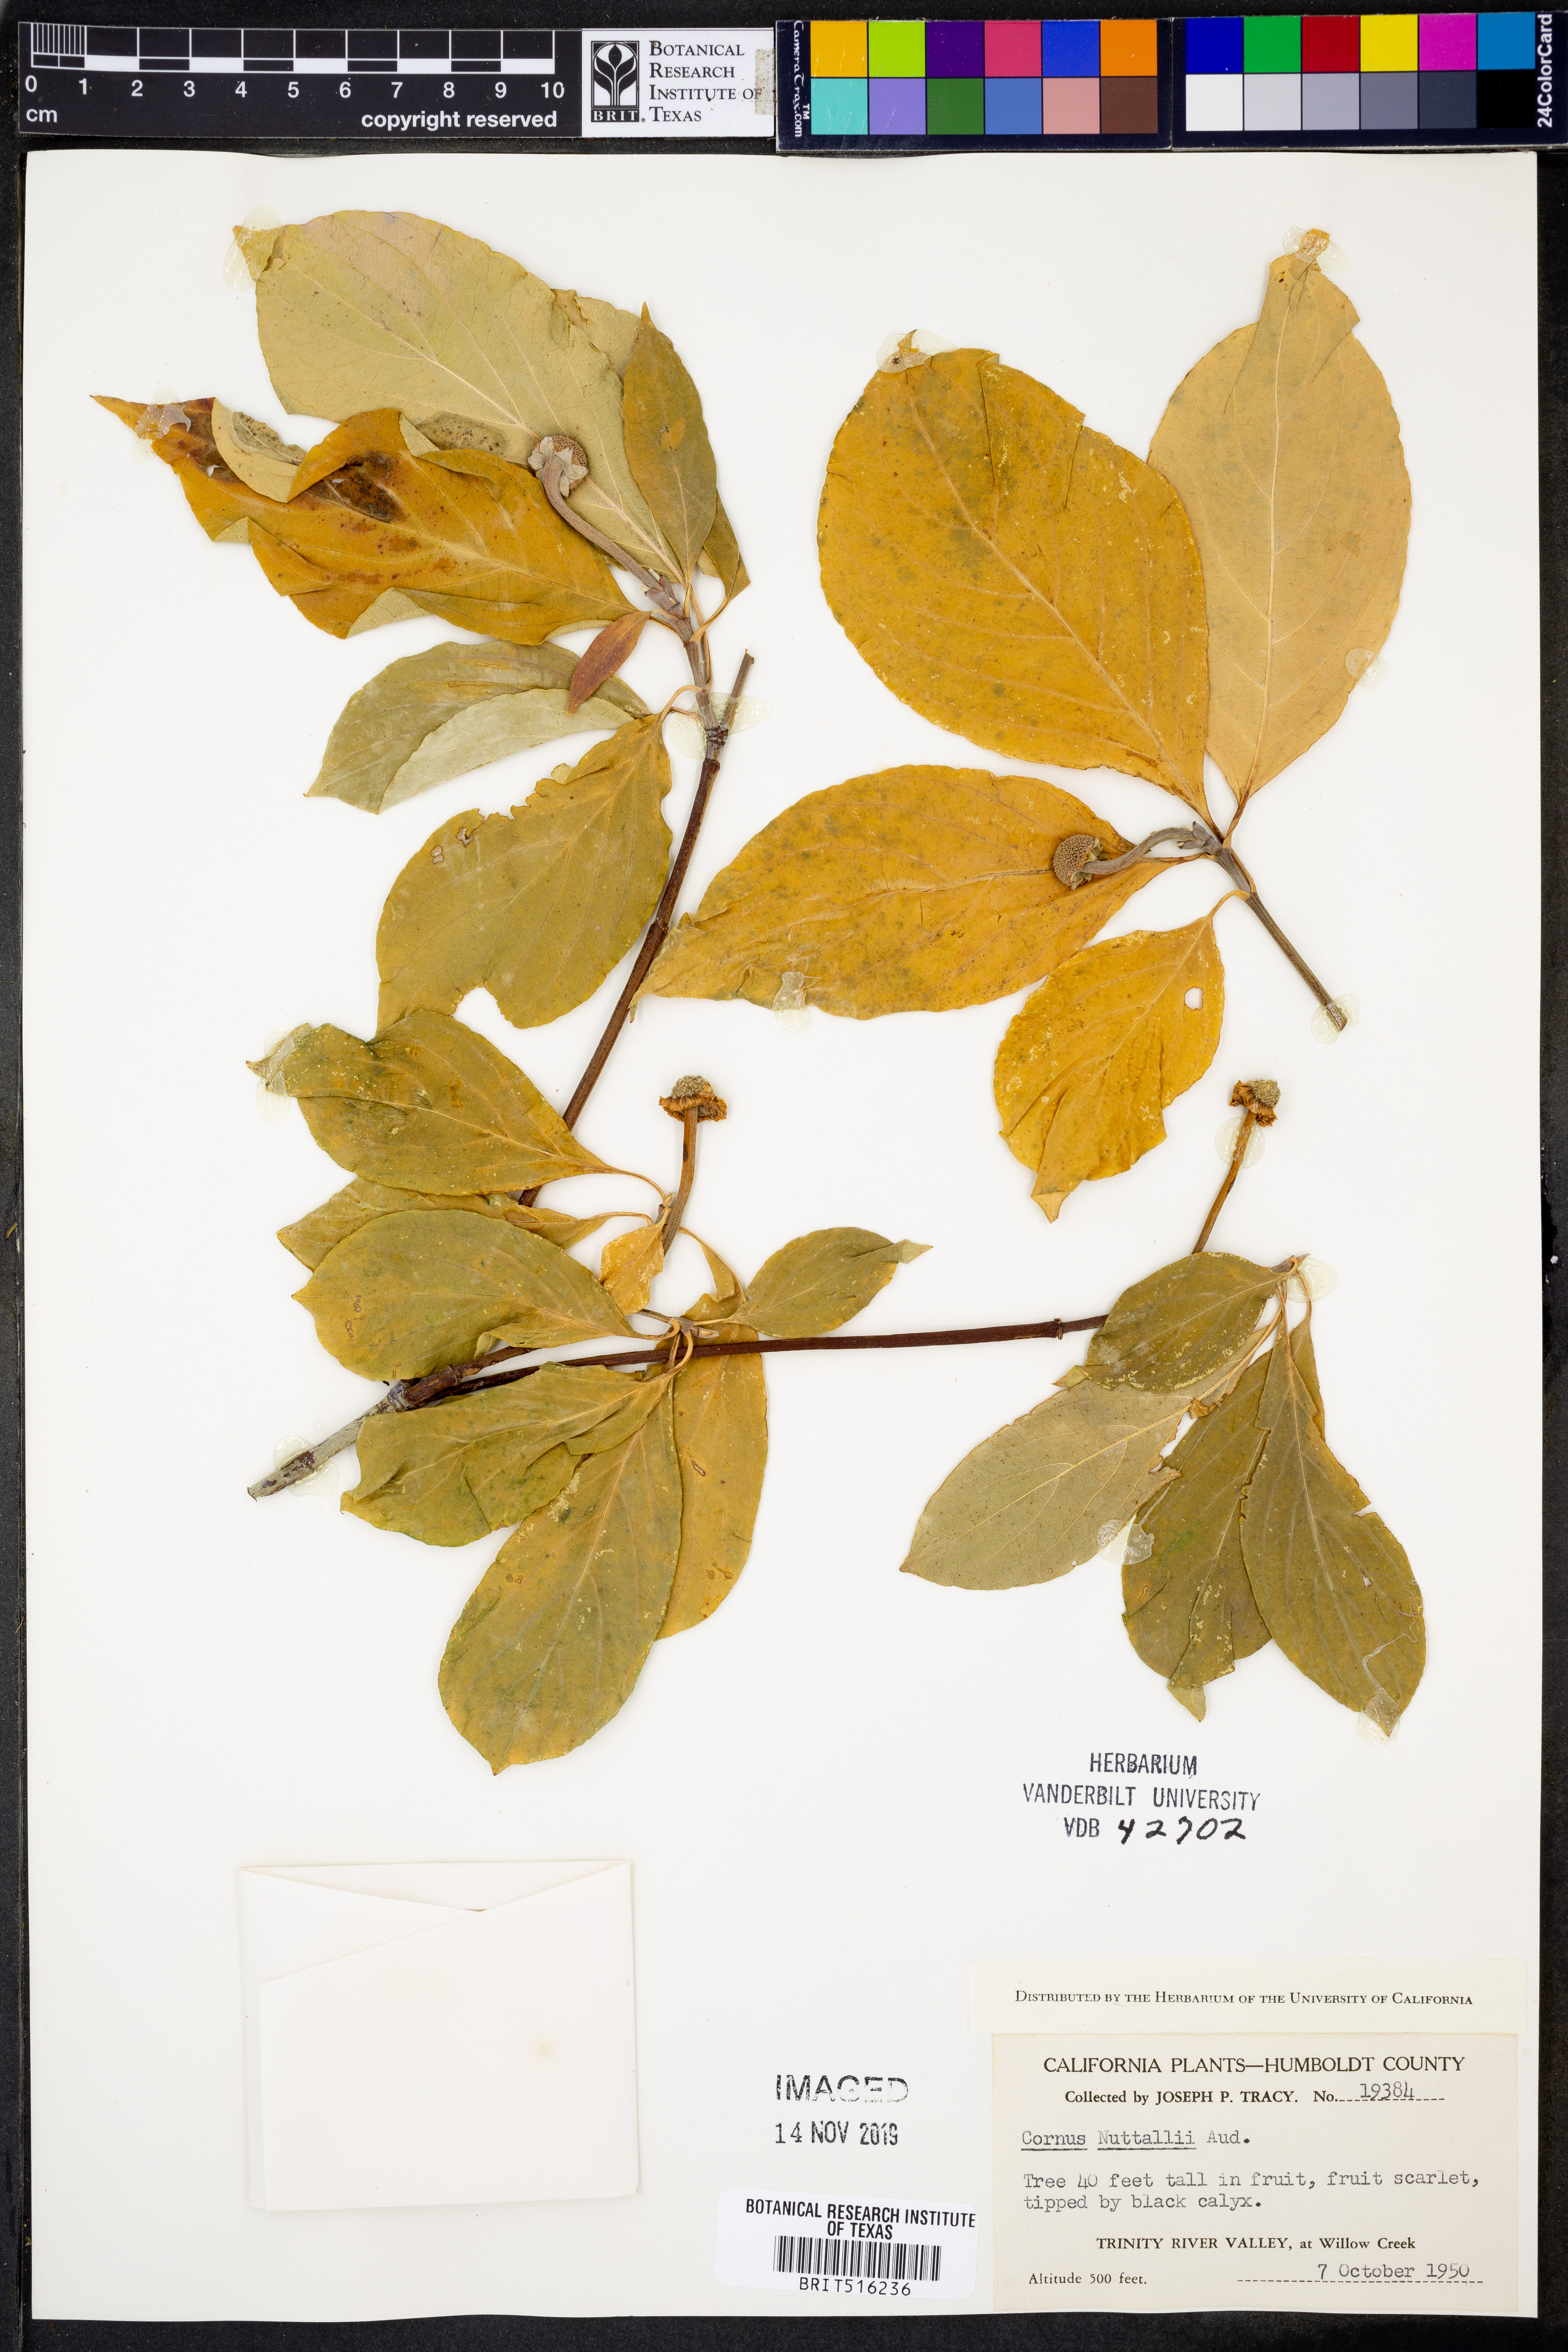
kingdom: Plantae
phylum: Tracheophyta
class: Magnoliopsida
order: Cornales
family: Cornaceae
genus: Cornus
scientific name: Cornus nuttallii
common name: Pacific dogwood
